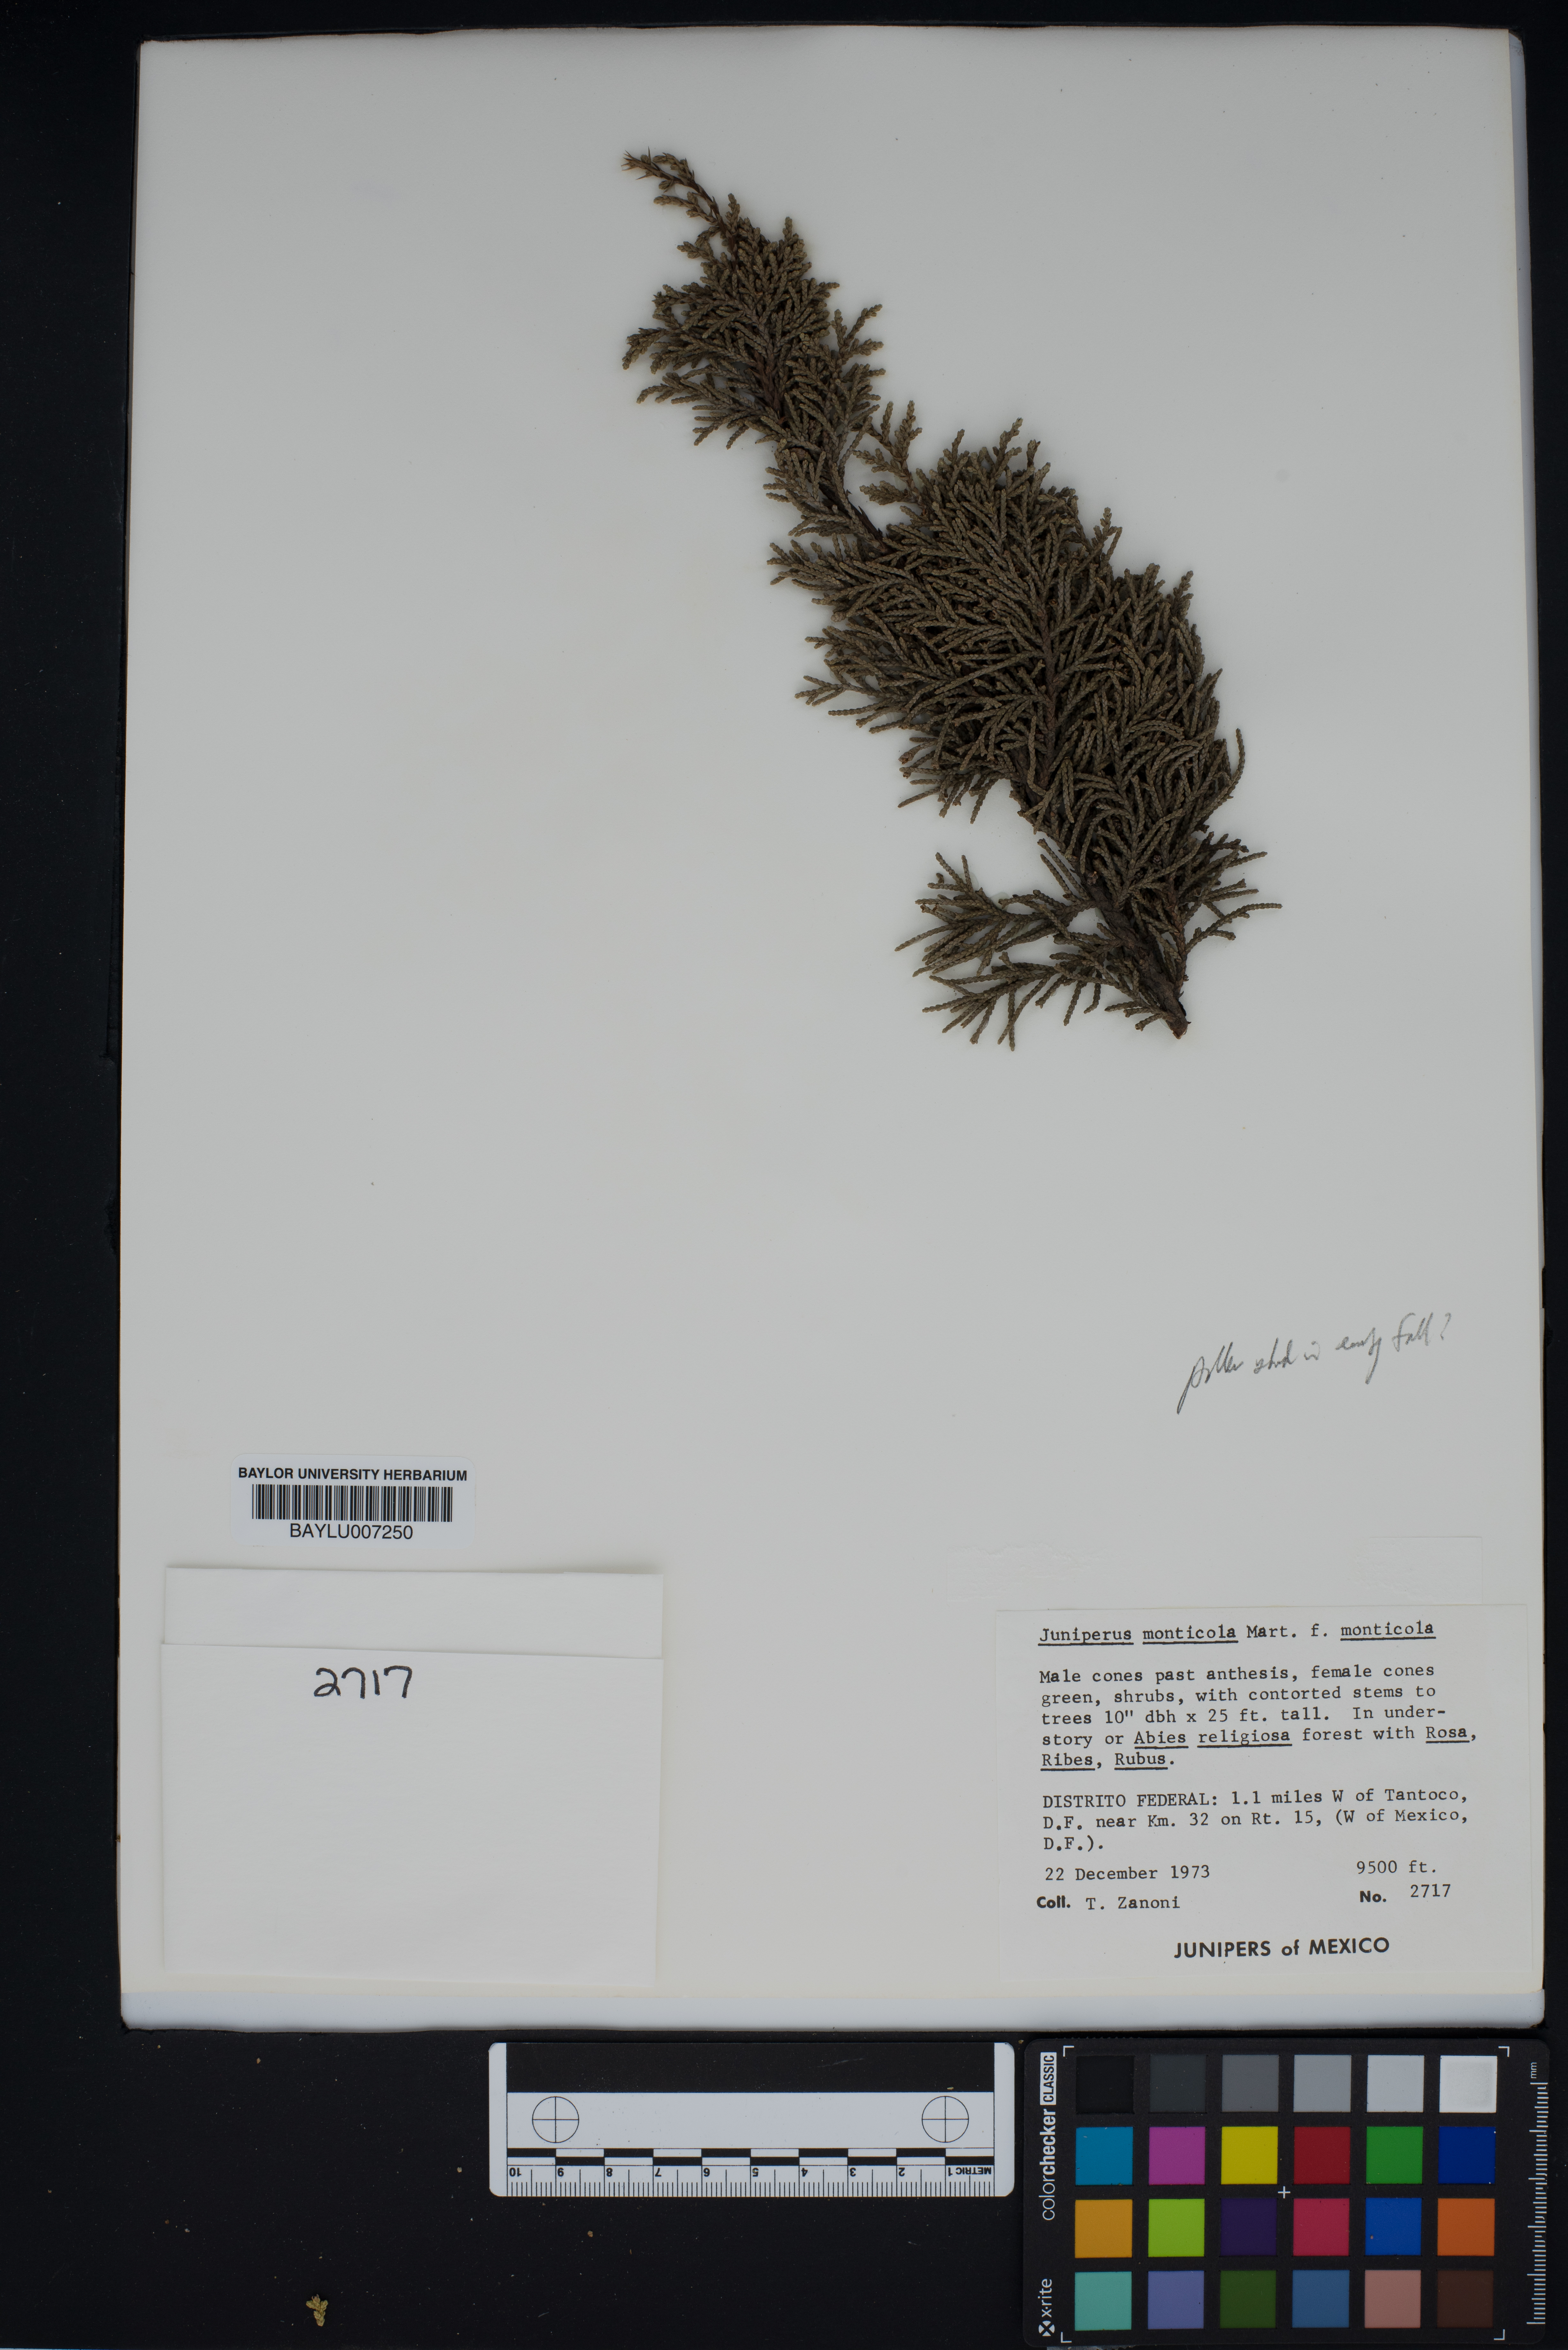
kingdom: Plantae
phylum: Tracheophyta
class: Pinopsida
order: Pinales
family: Cupressaceae
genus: Juniperus
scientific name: Juniperus monticola
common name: Mexican juniper
